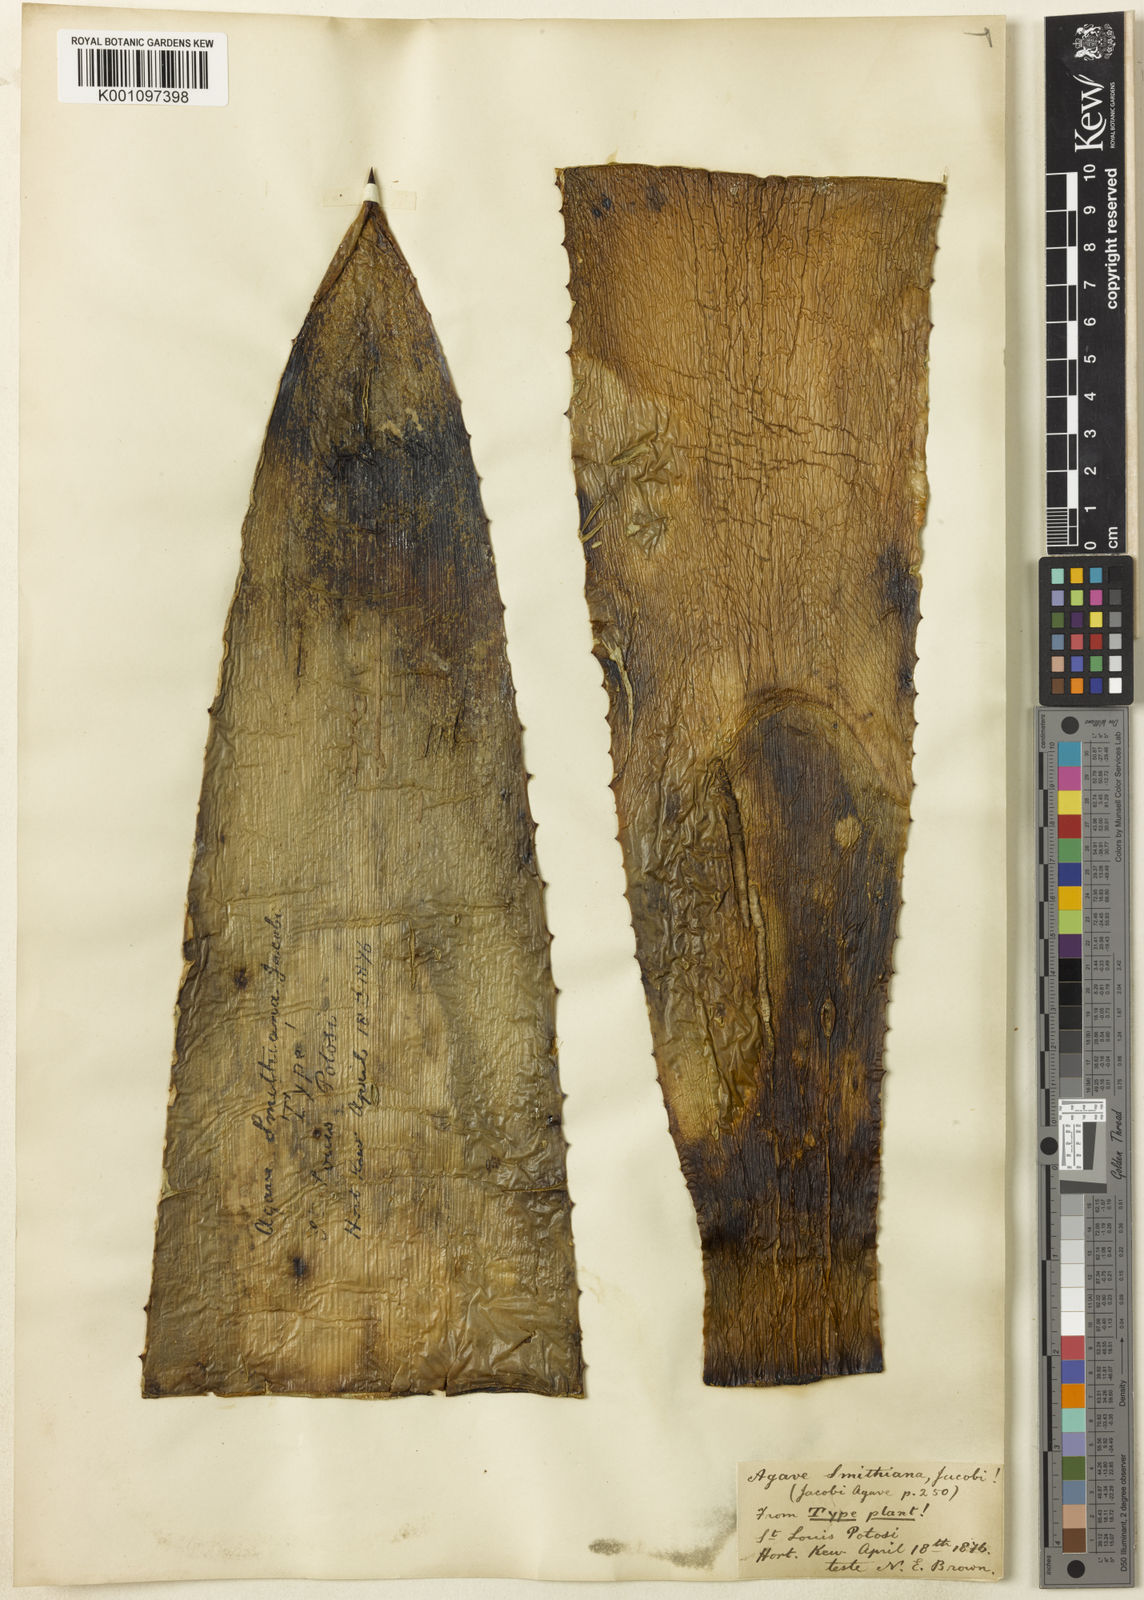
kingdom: Plantae
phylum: Tracheophyta
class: Liliopsida
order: Asparagales
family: Asparagaceae
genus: Agave
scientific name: Agave smithiana
